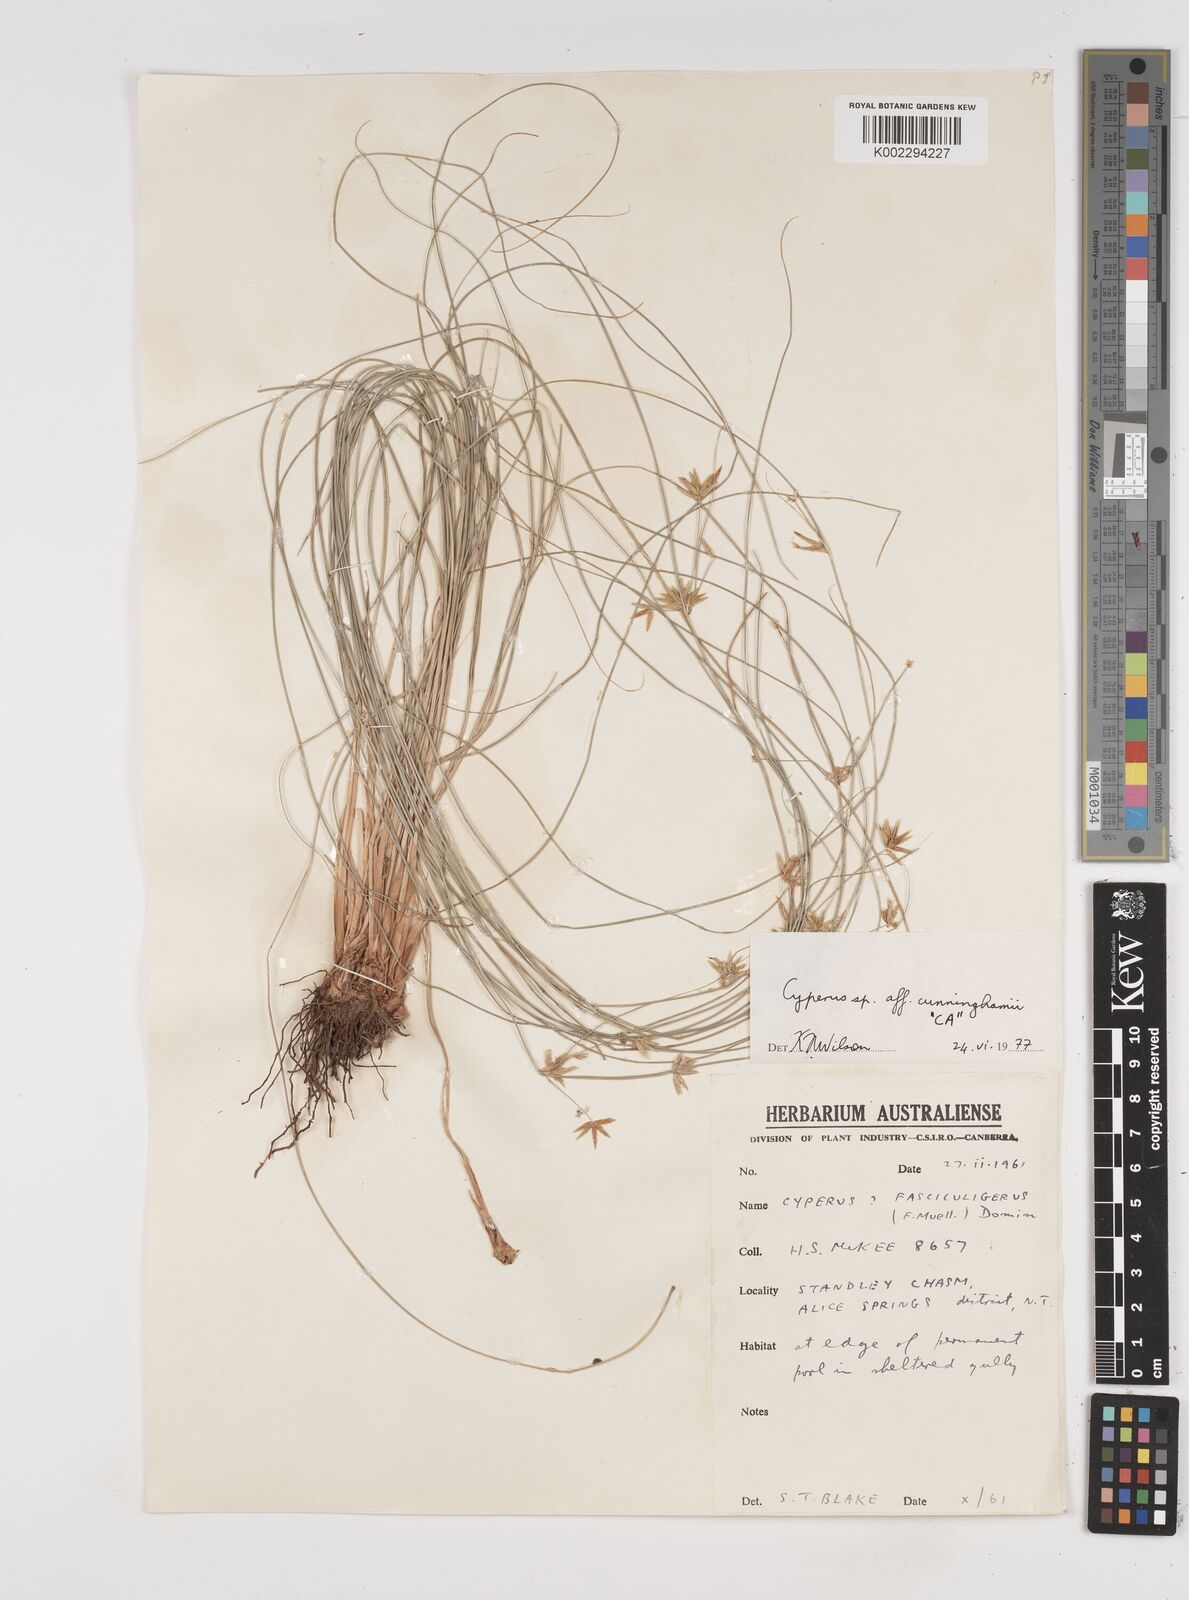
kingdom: Plantae
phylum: Tracheophyta
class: Liliopsida
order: Poales
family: Cyperaceae
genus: Cyperus
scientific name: Cyperus cunninghamii
